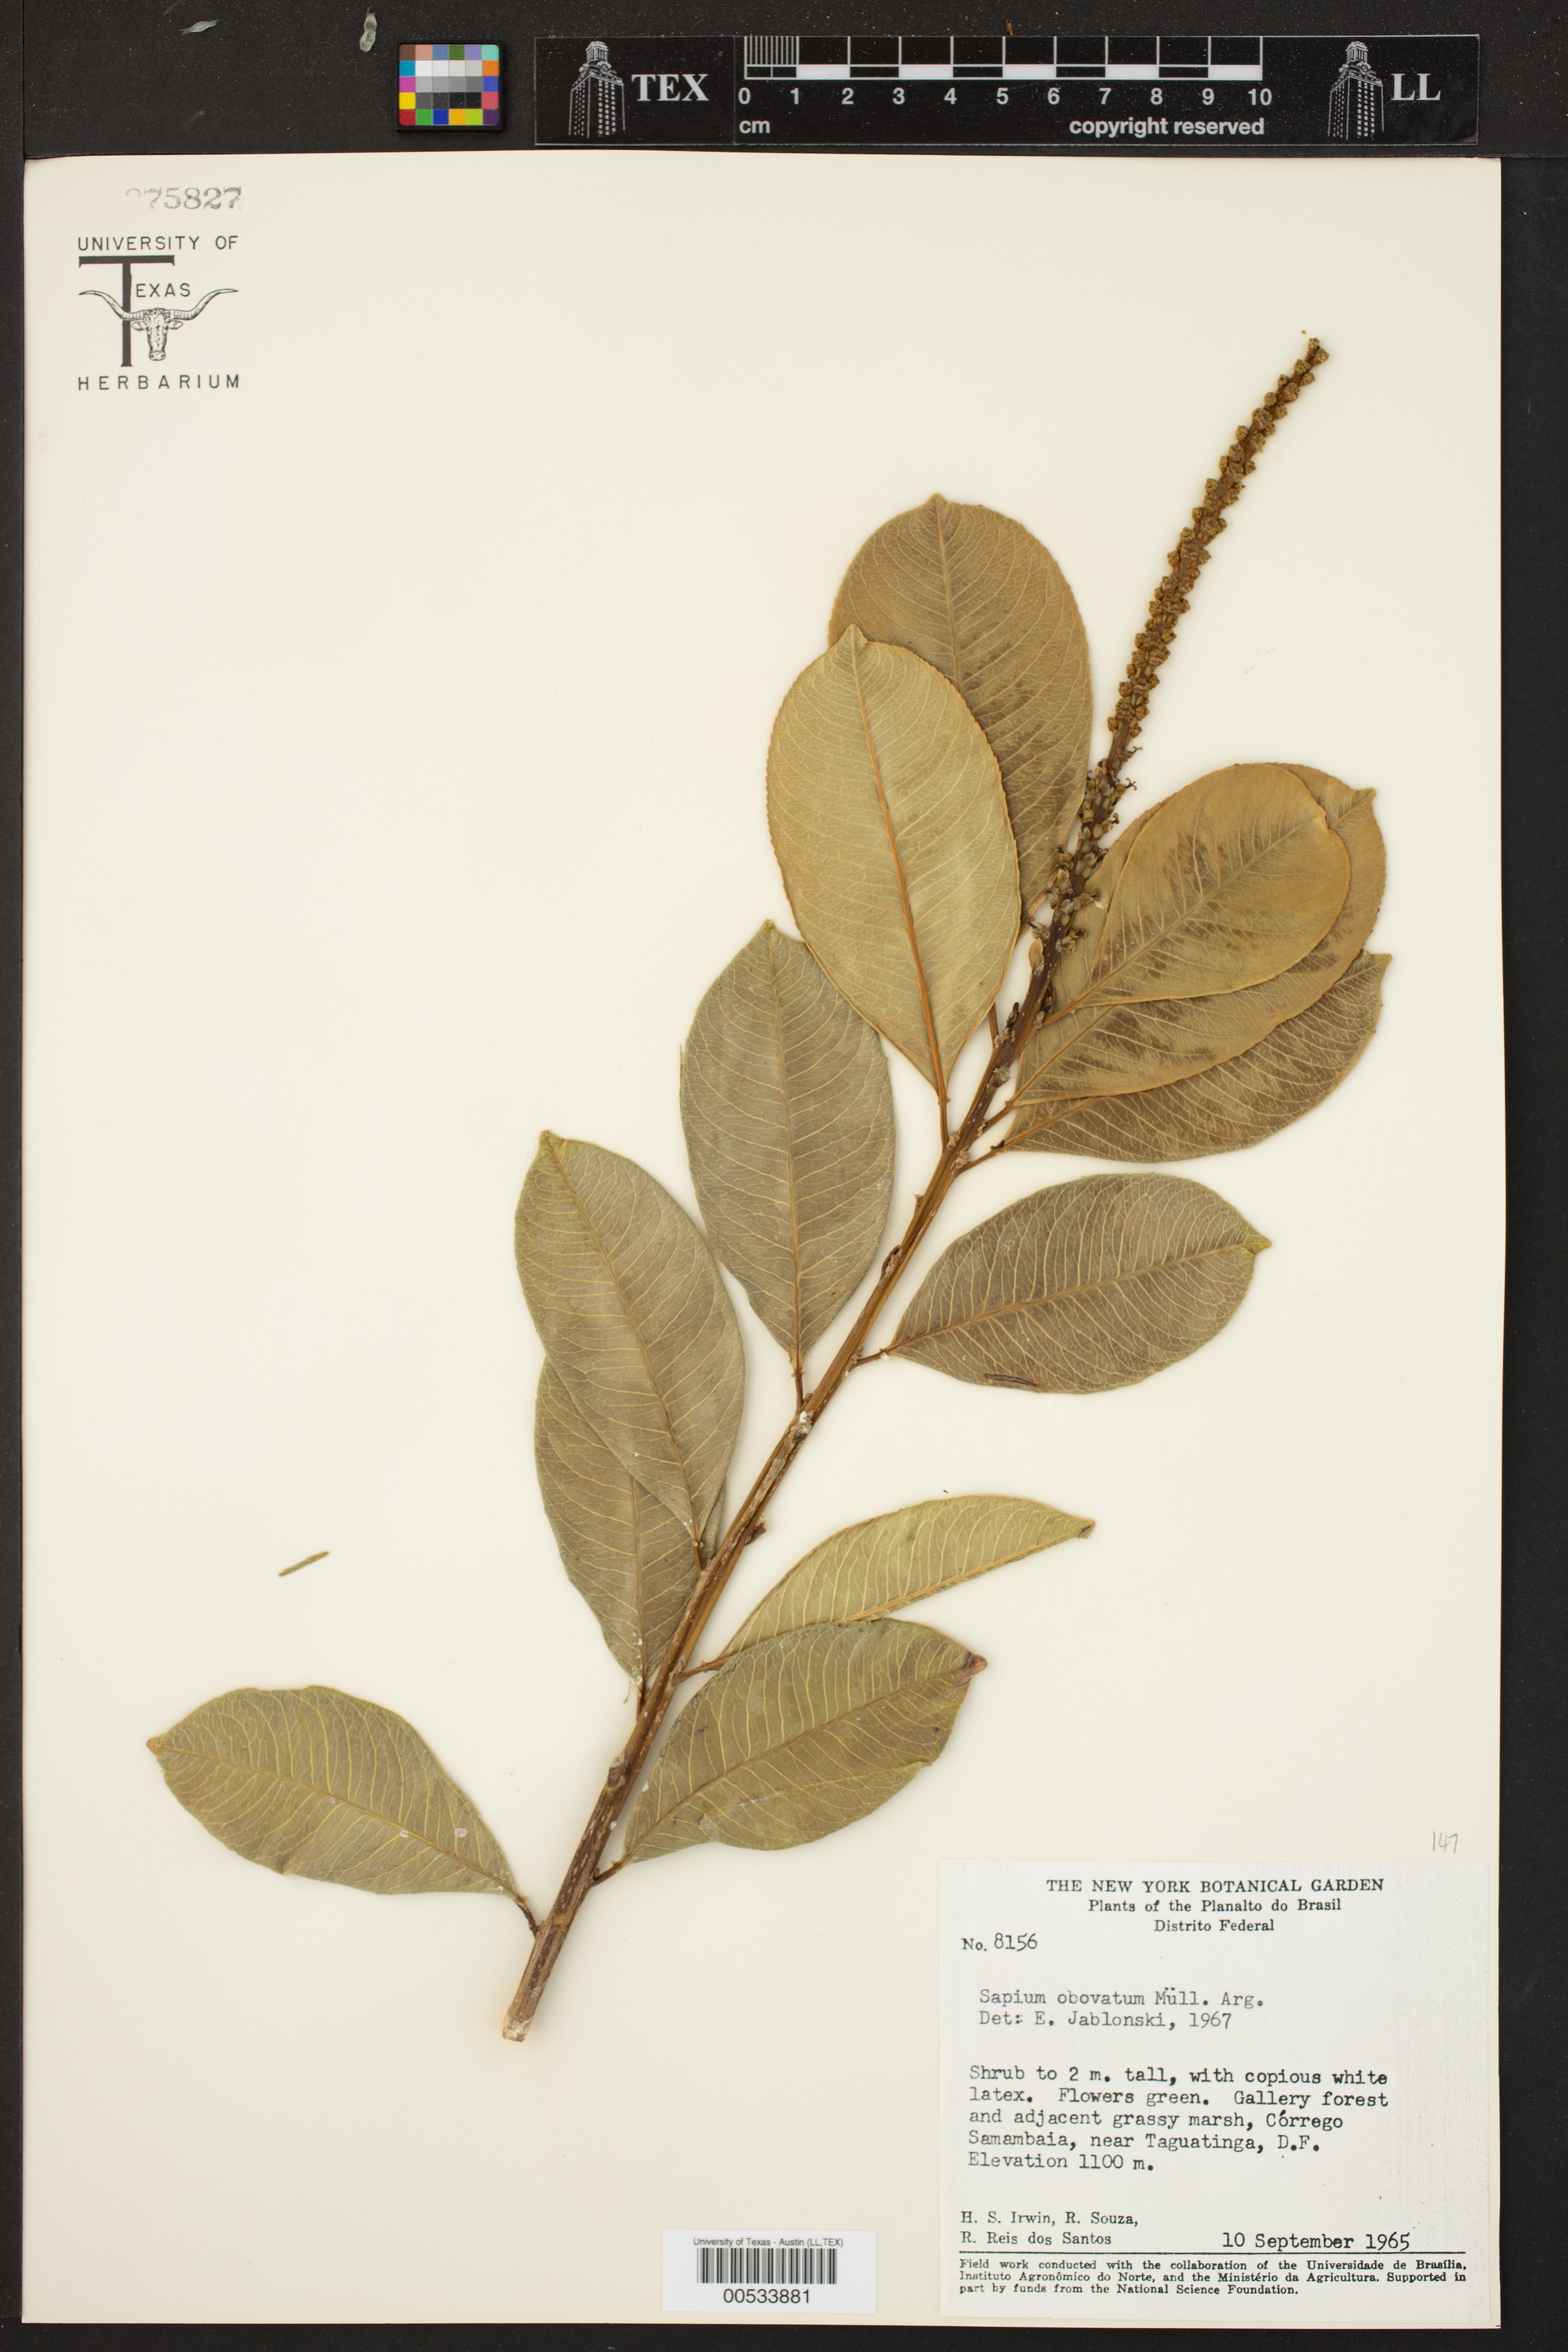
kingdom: Plantae
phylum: Tracheophyta
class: Magnoliopsida
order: Malpighiales
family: Euphorbiaceae
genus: Sapium
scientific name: Sapium
